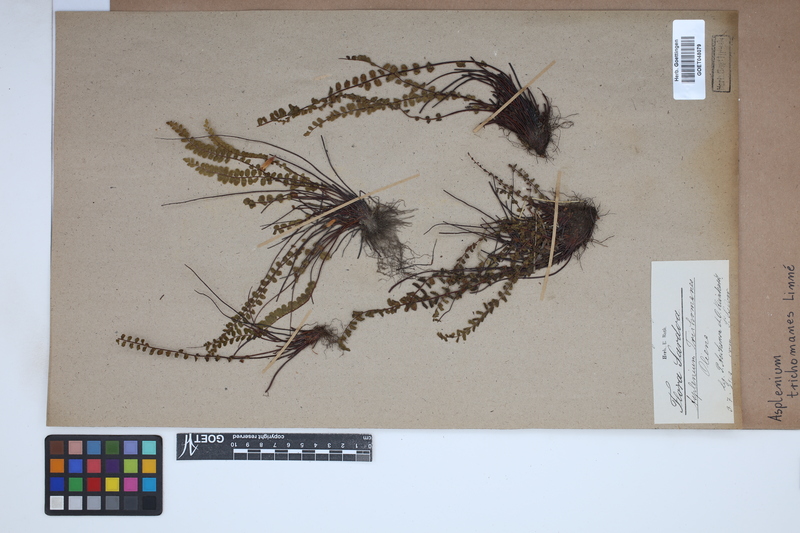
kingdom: Plantae
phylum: Tracheophyta
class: Polypodiopsida
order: Polypodiales
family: Aspleniaceae
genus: Asplenium
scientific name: Asplenium trichomanes
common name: Maidenhair spleenwort
